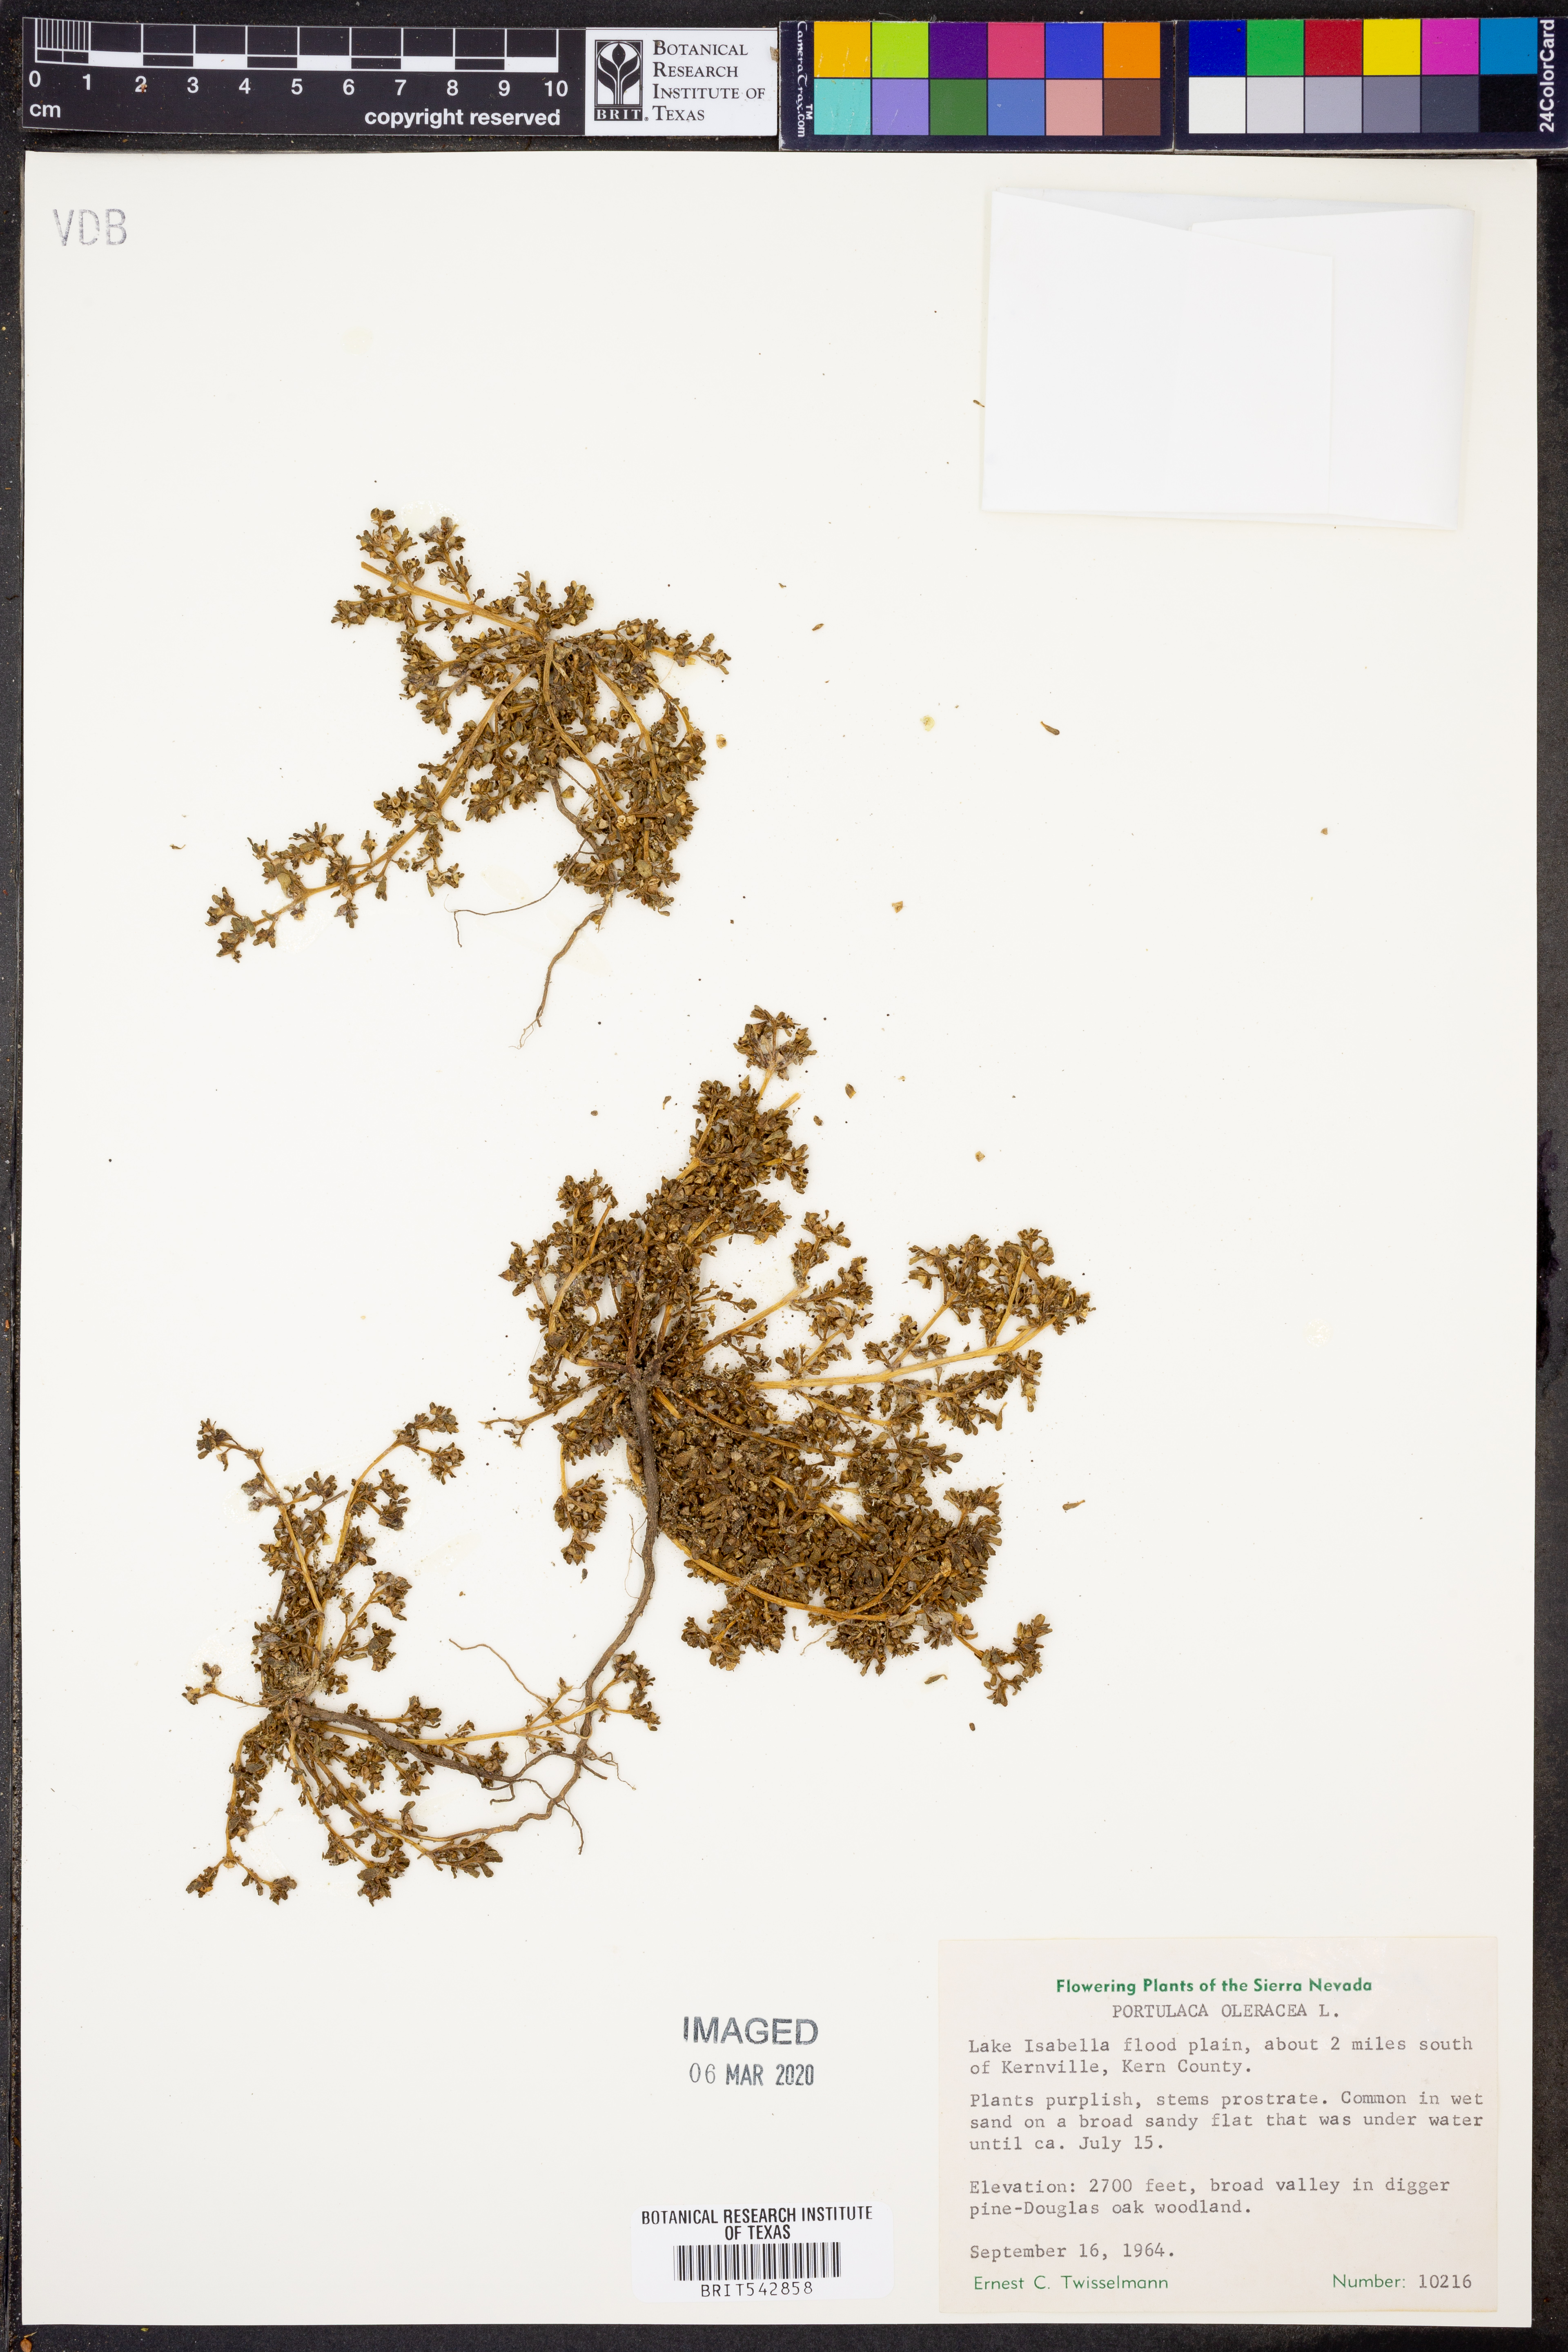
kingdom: Plantae
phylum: Tracheophyta
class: Magnoliopsida
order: Caryophyllales
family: Portulacaceae
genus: Portulaca
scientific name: Portulaca oleracea
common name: Common purslane
